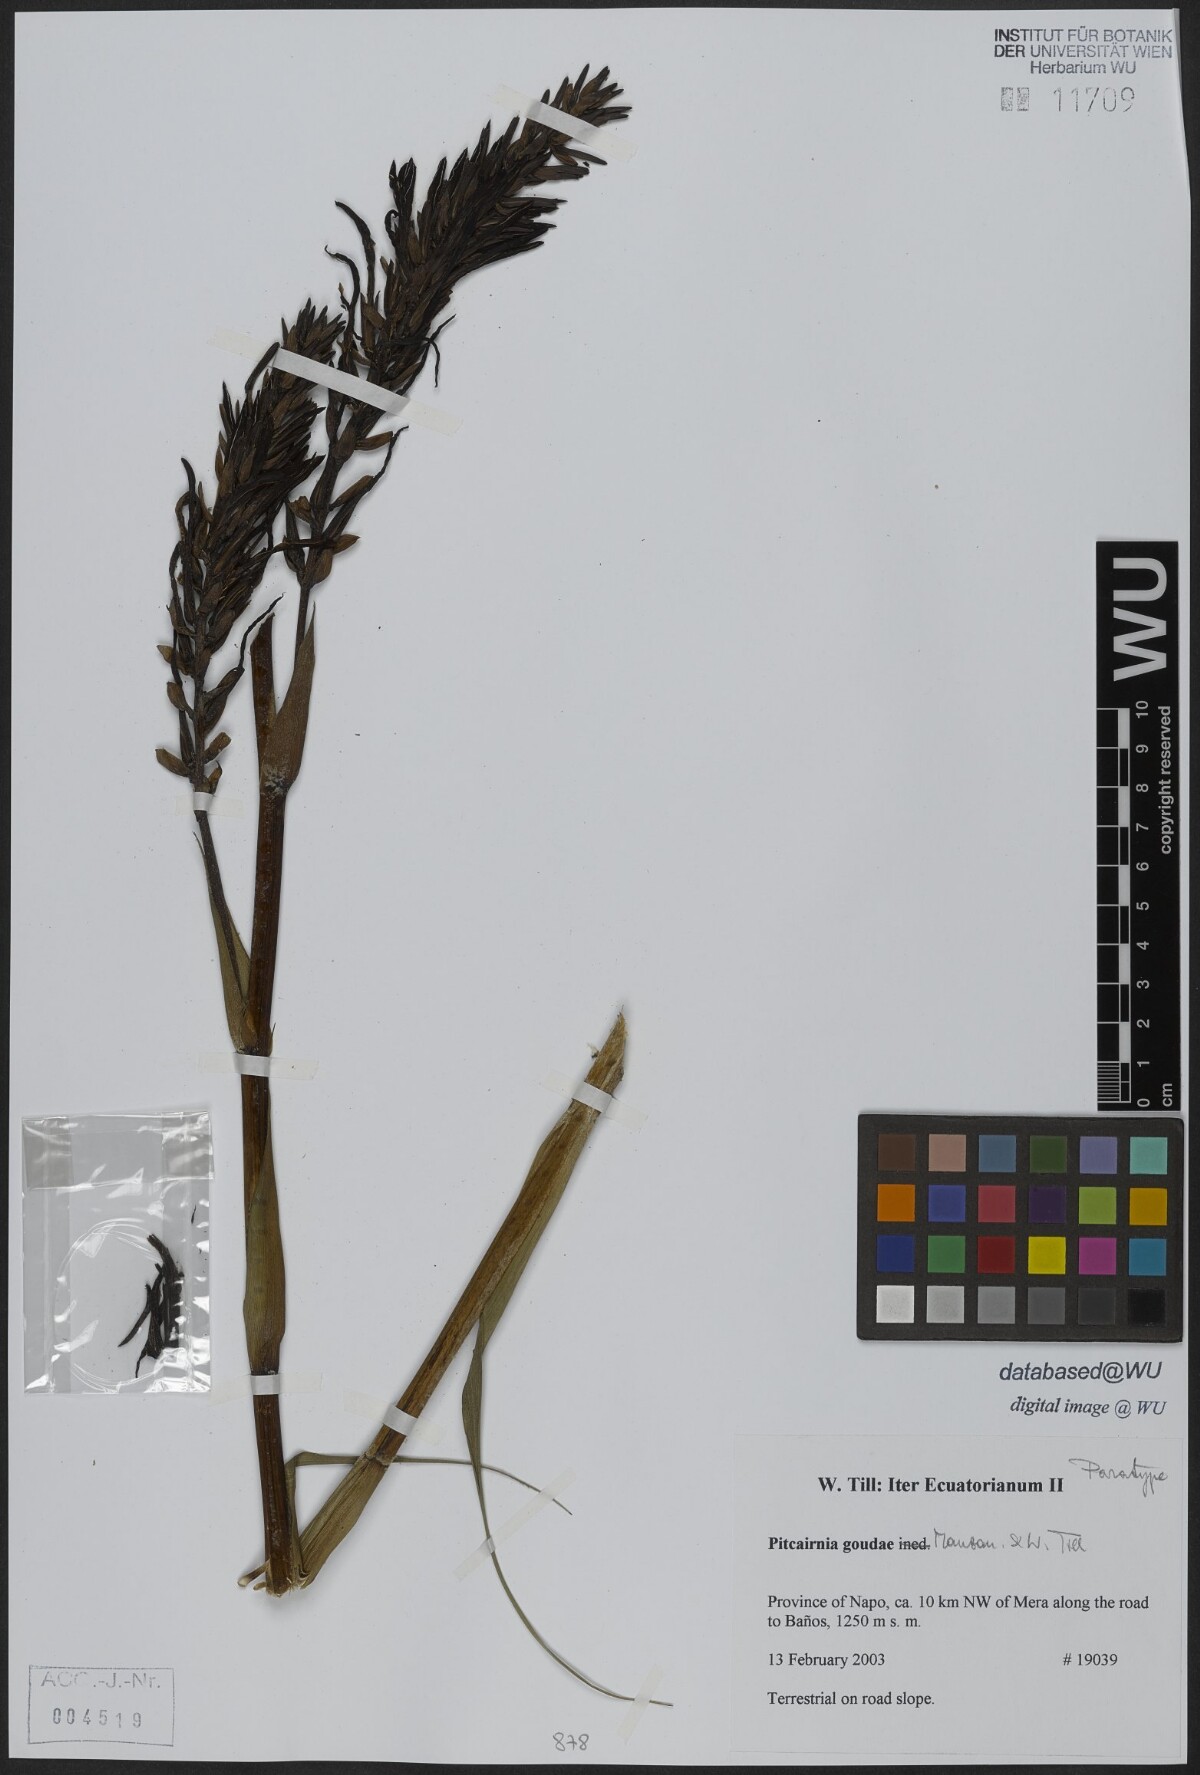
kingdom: Plantae
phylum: Tracheophyta
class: Liliopsida
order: Poales
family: Bromeliaceae
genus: Pitcairnia
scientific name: Pitcairnia goudae
